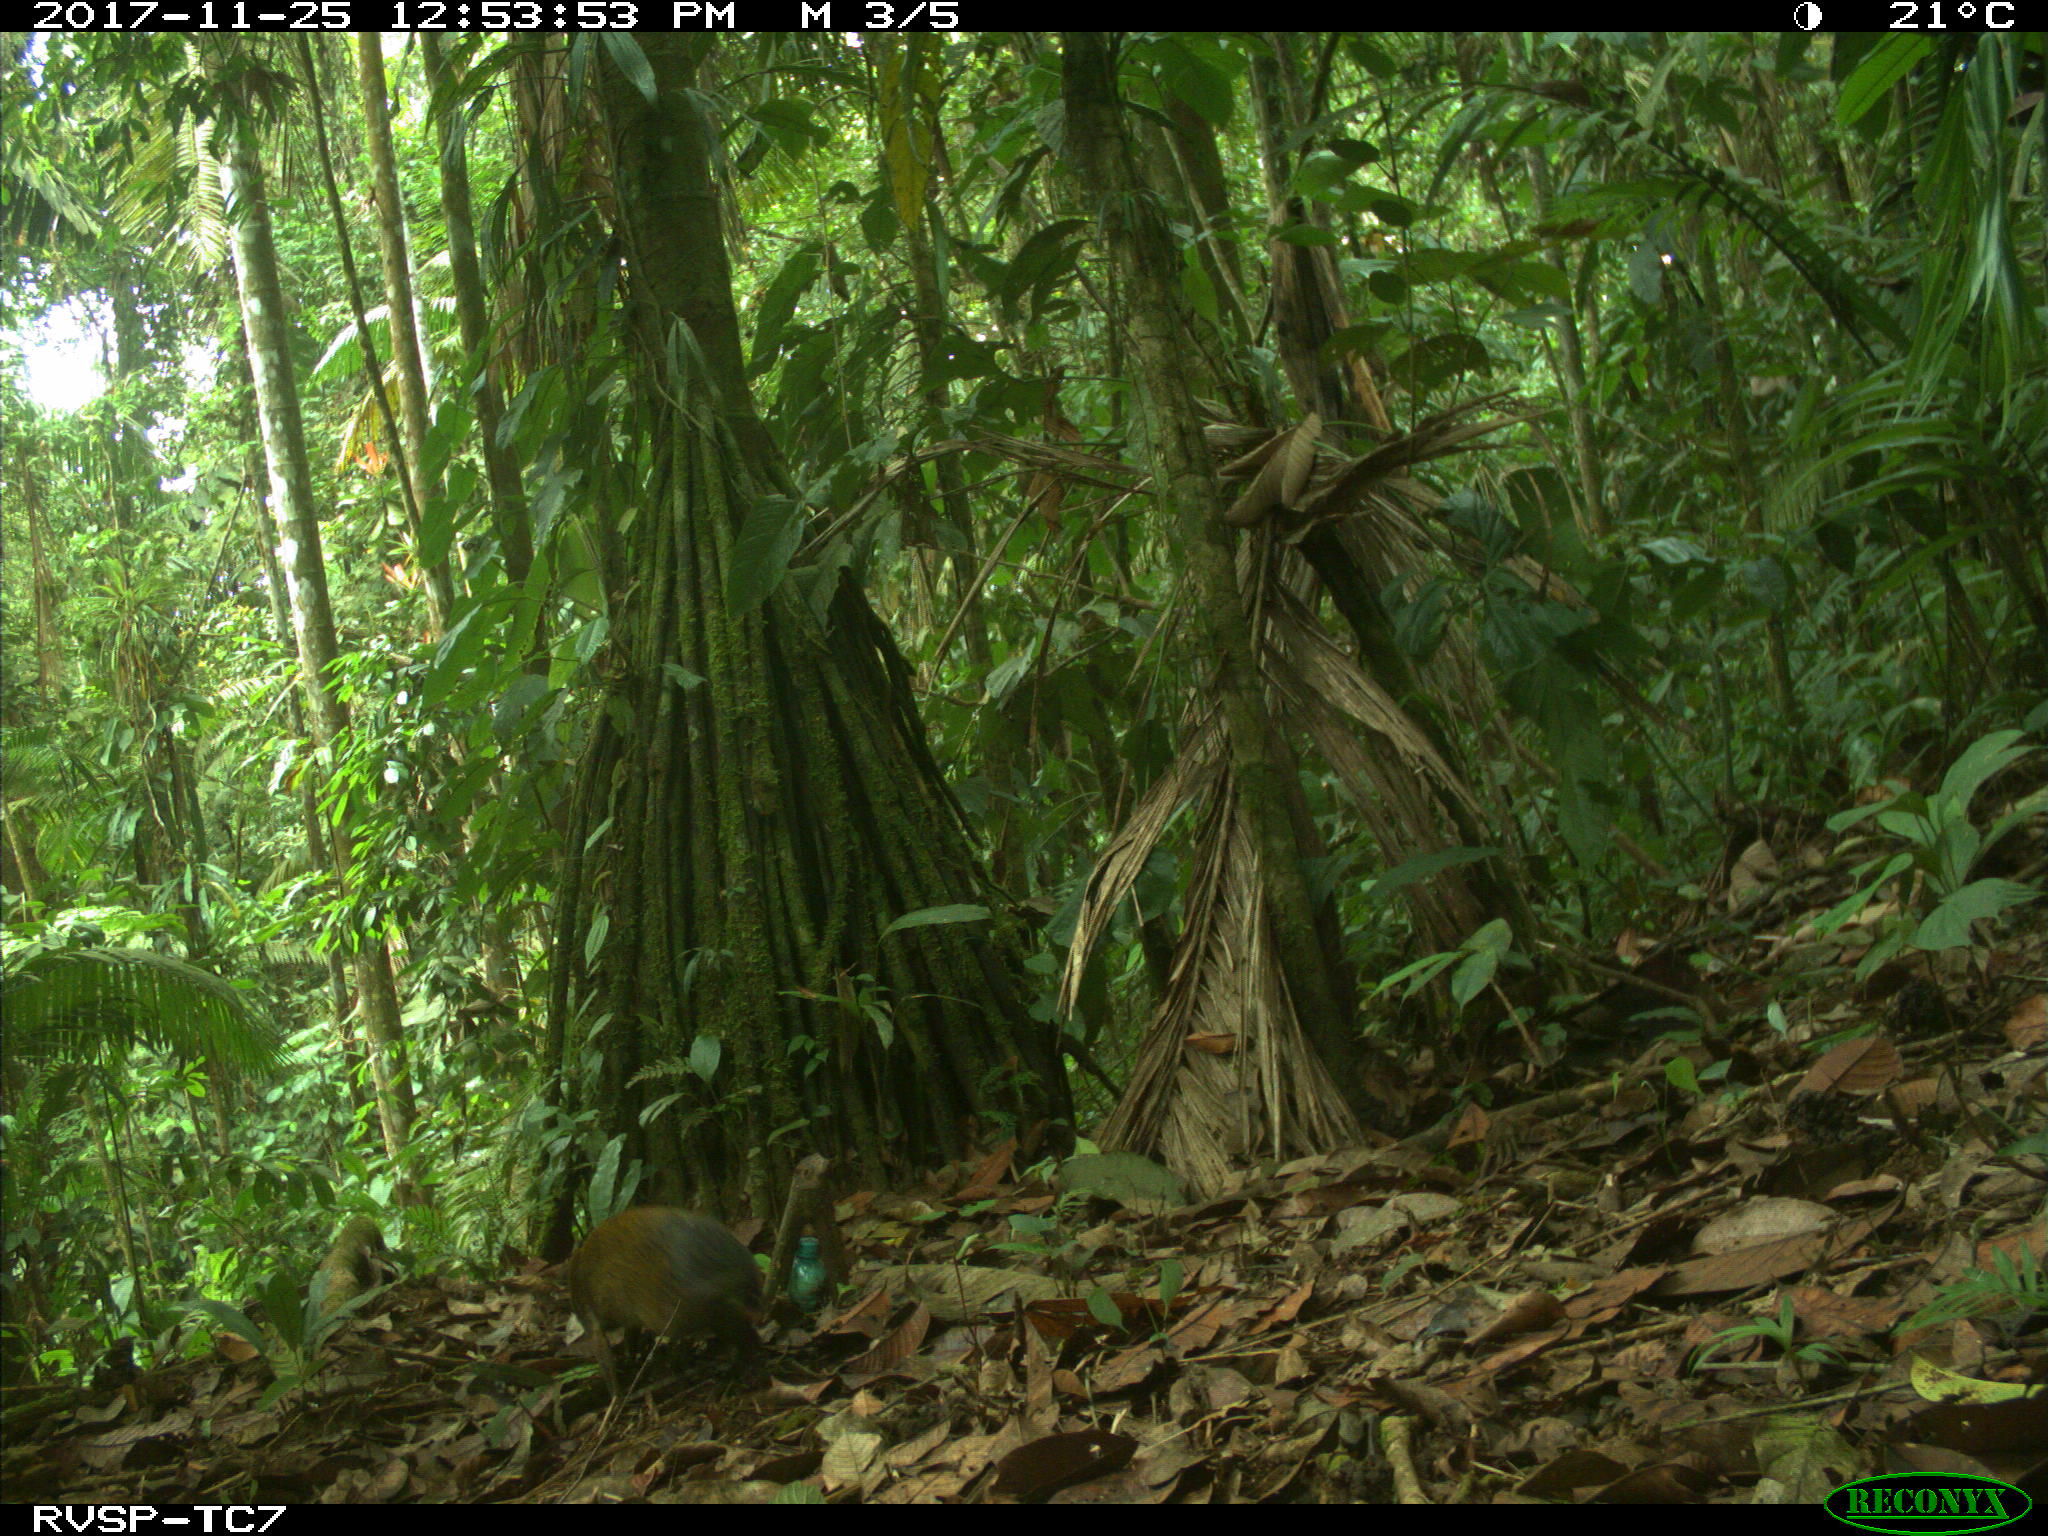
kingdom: Animalia
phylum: Chordata
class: Mammalia
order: Rodentia
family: Dasyproctidae
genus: Dasyprocta
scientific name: Dasyprocta punctata
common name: Central american agouti
